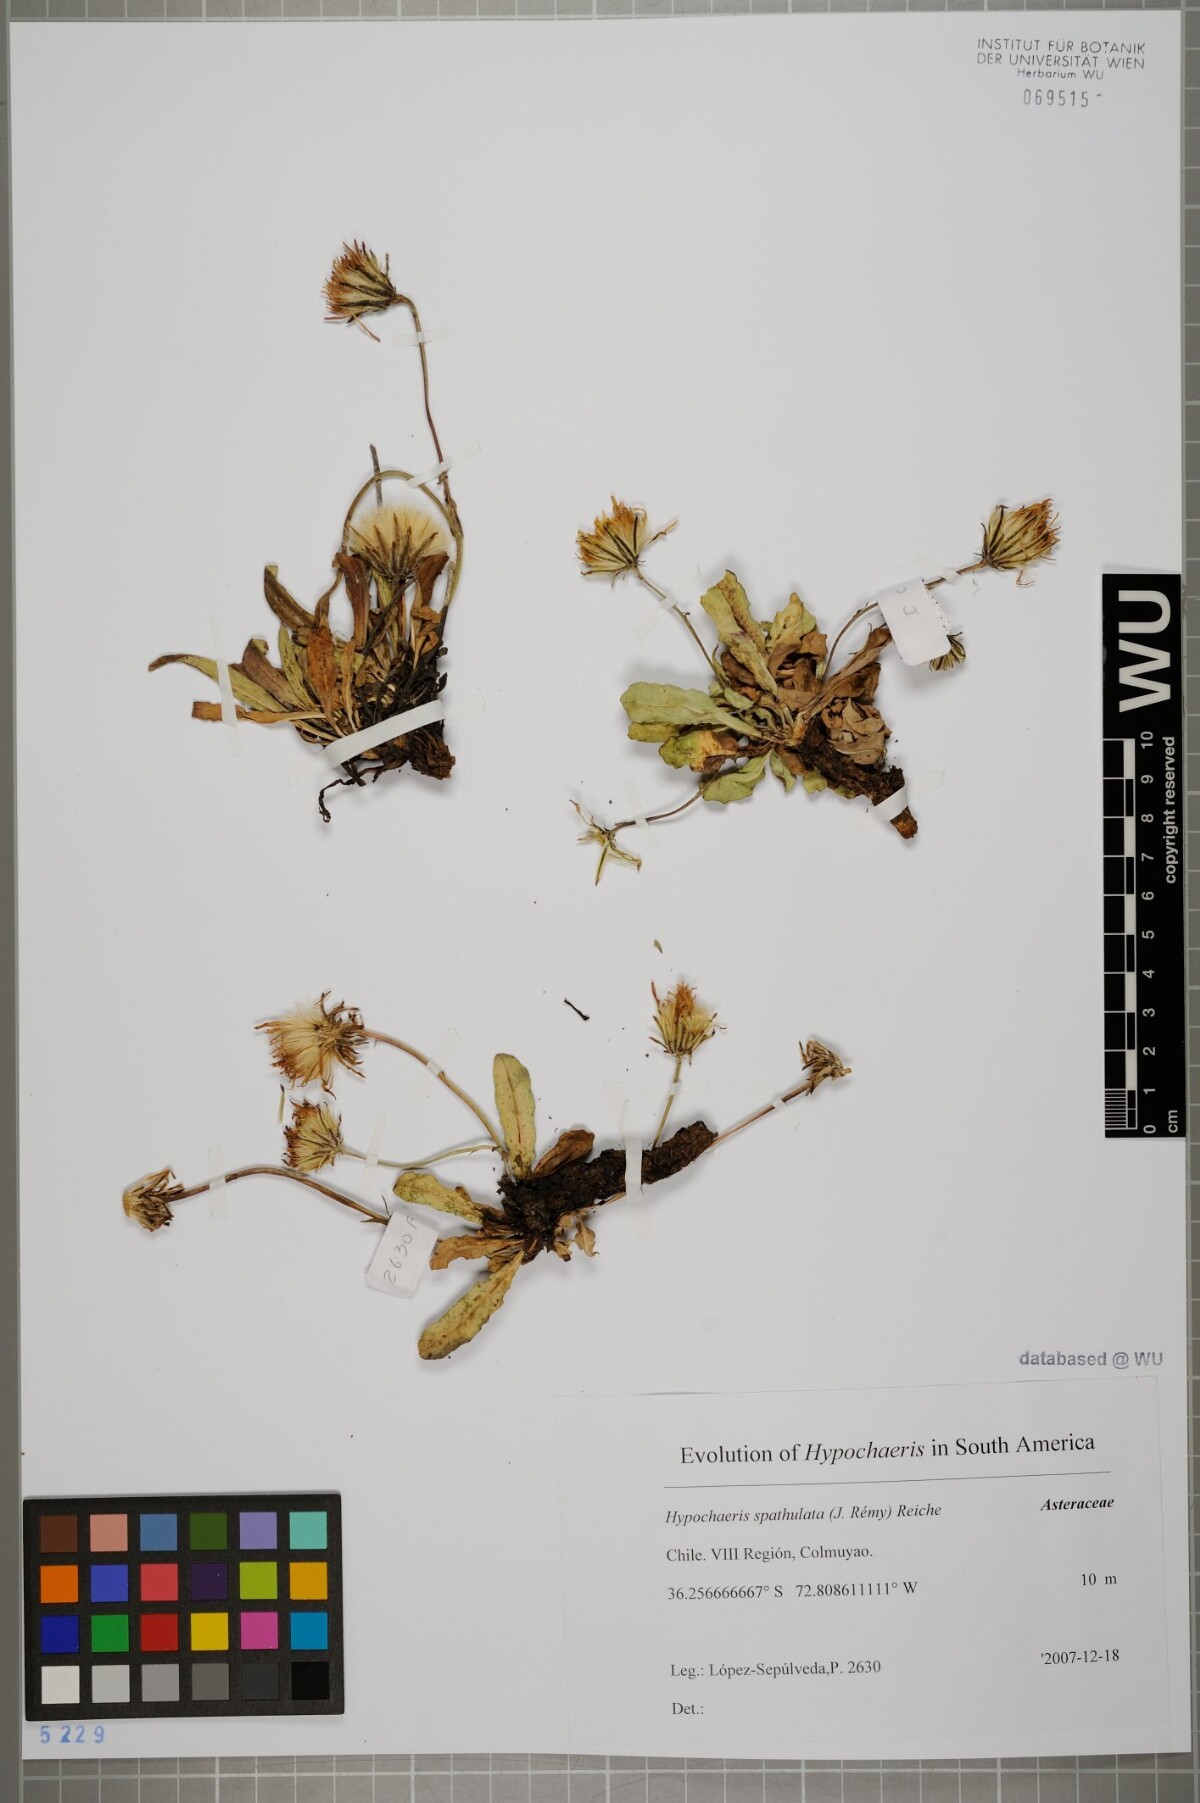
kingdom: Plantae
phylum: Tracheophyta
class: Magnoliopsida
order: Asterales
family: Asteraceae
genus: Hypochaeris
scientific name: Hypochaeris spathulata
